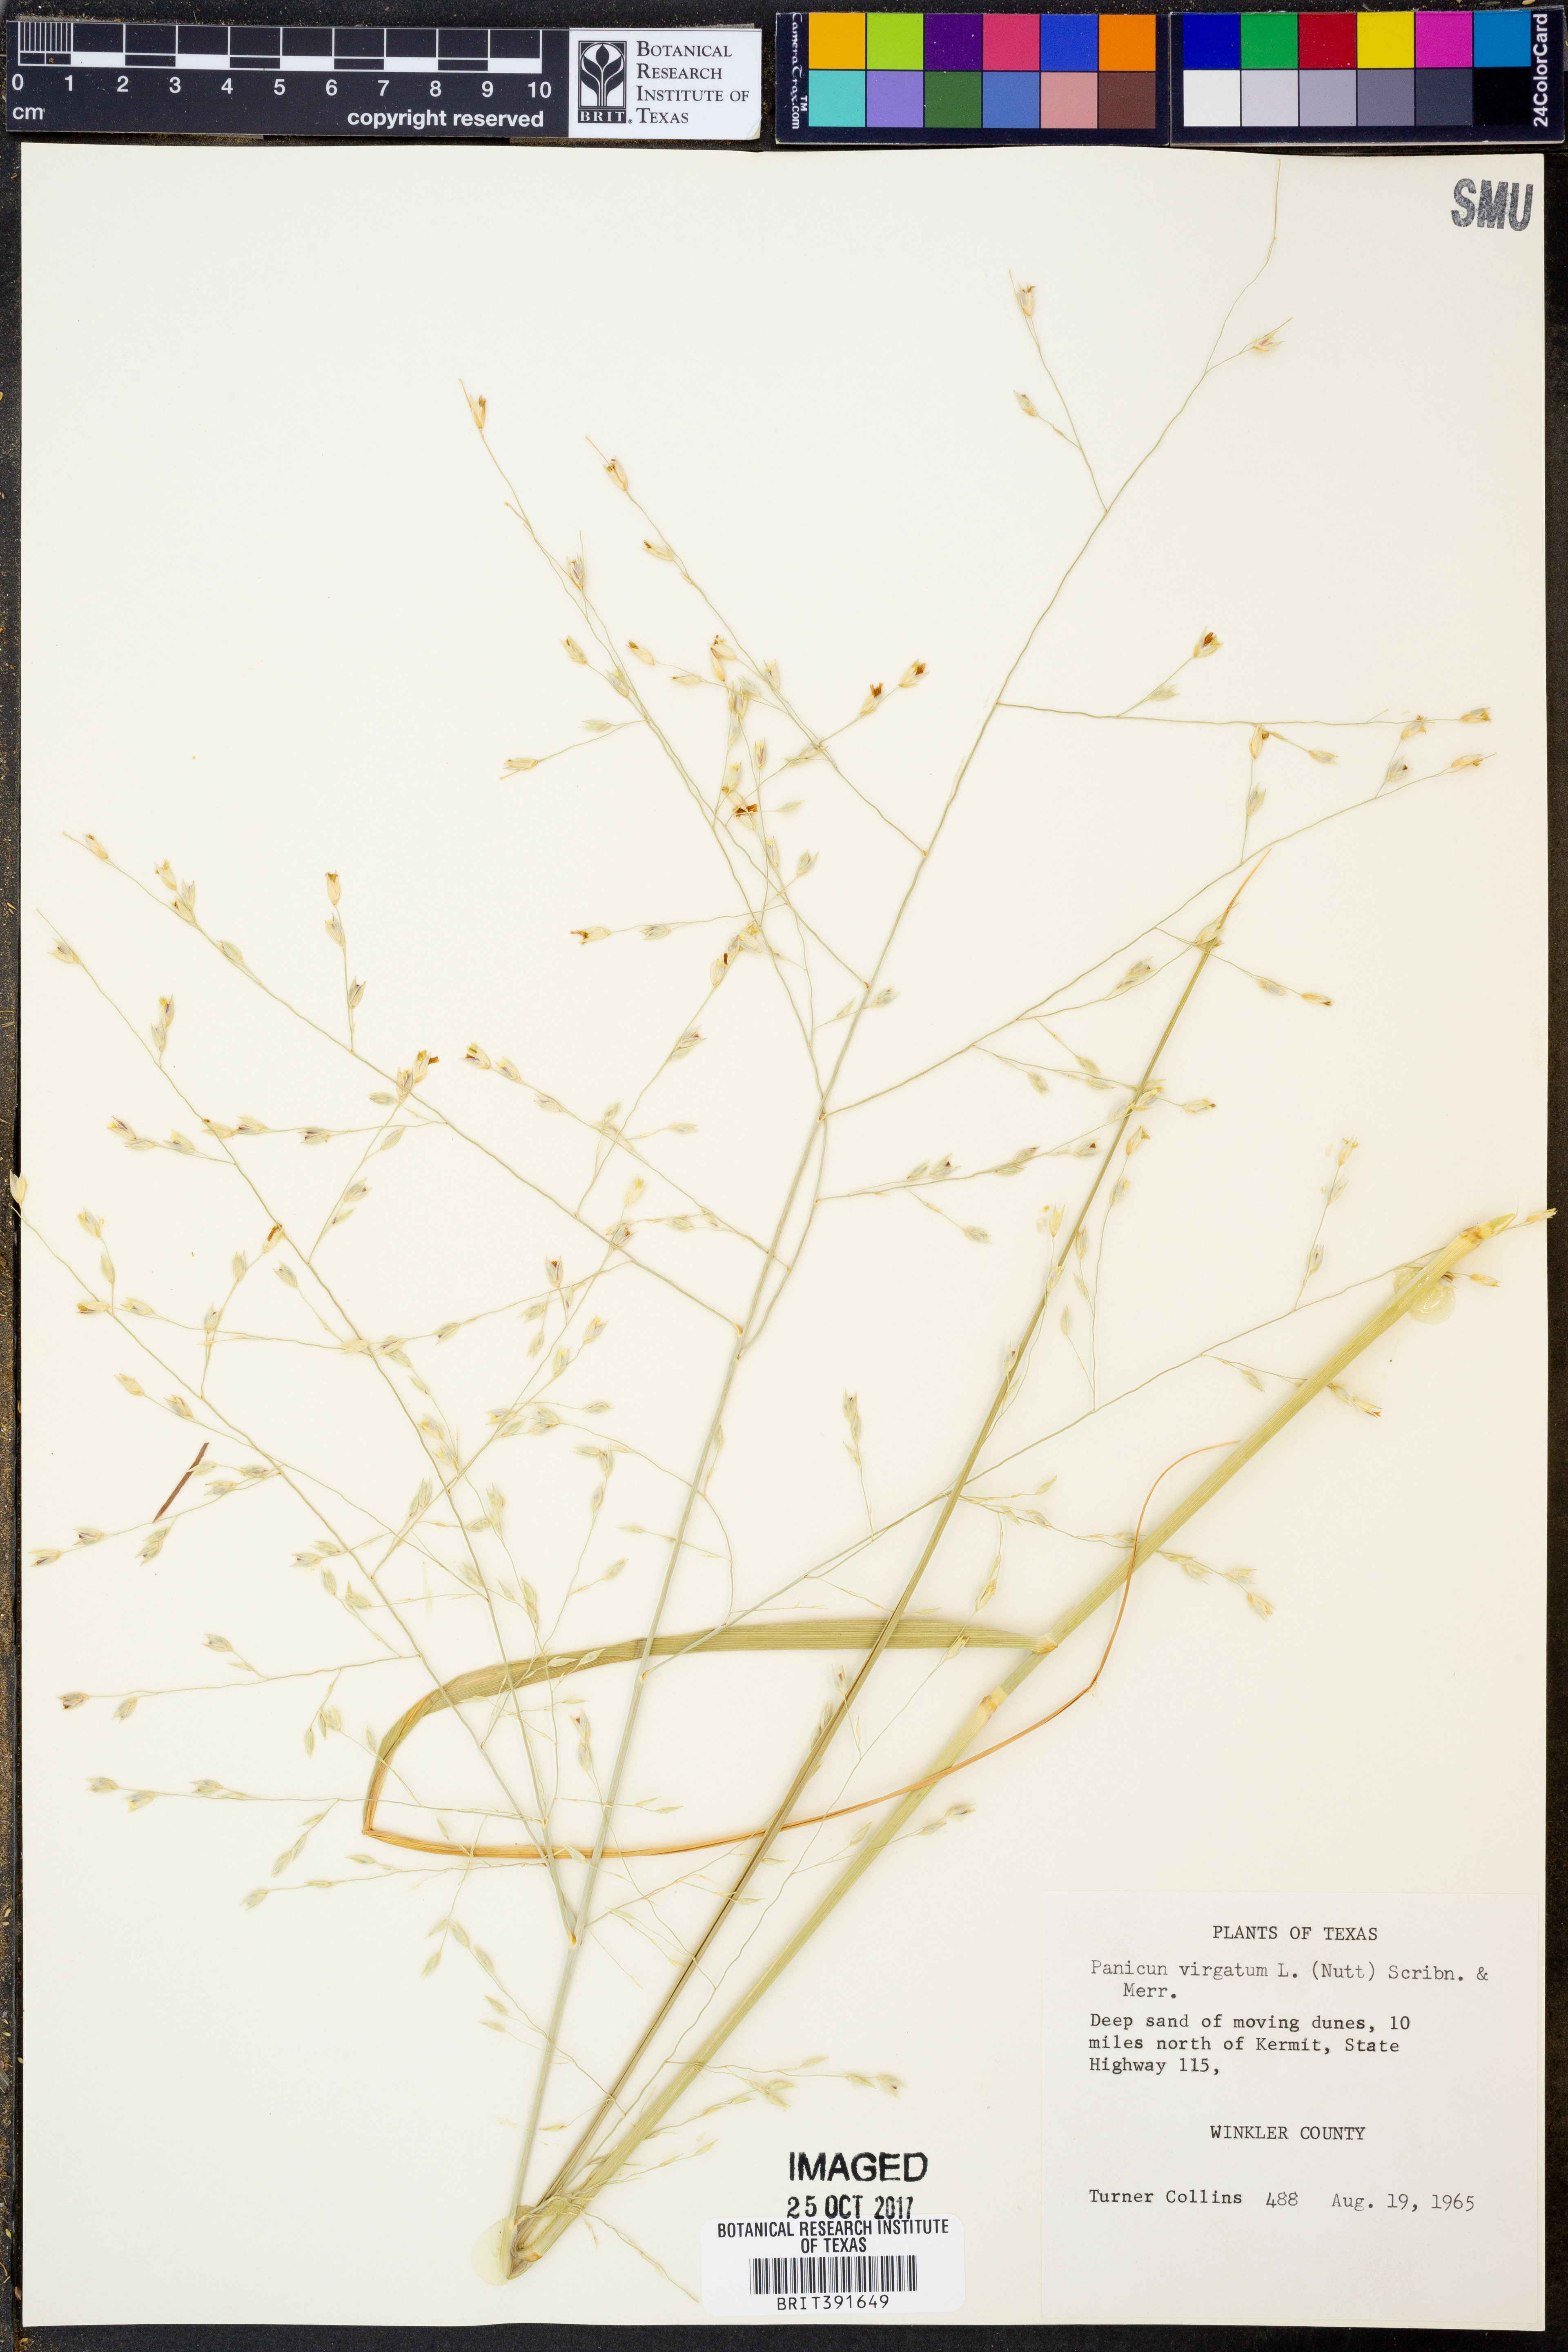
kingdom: Plantae
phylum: Tracheophyta
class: Liliopsida
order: Poales
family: Poaceae
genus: Panicum
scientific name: Panicum virgatum
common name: Switchgrass
